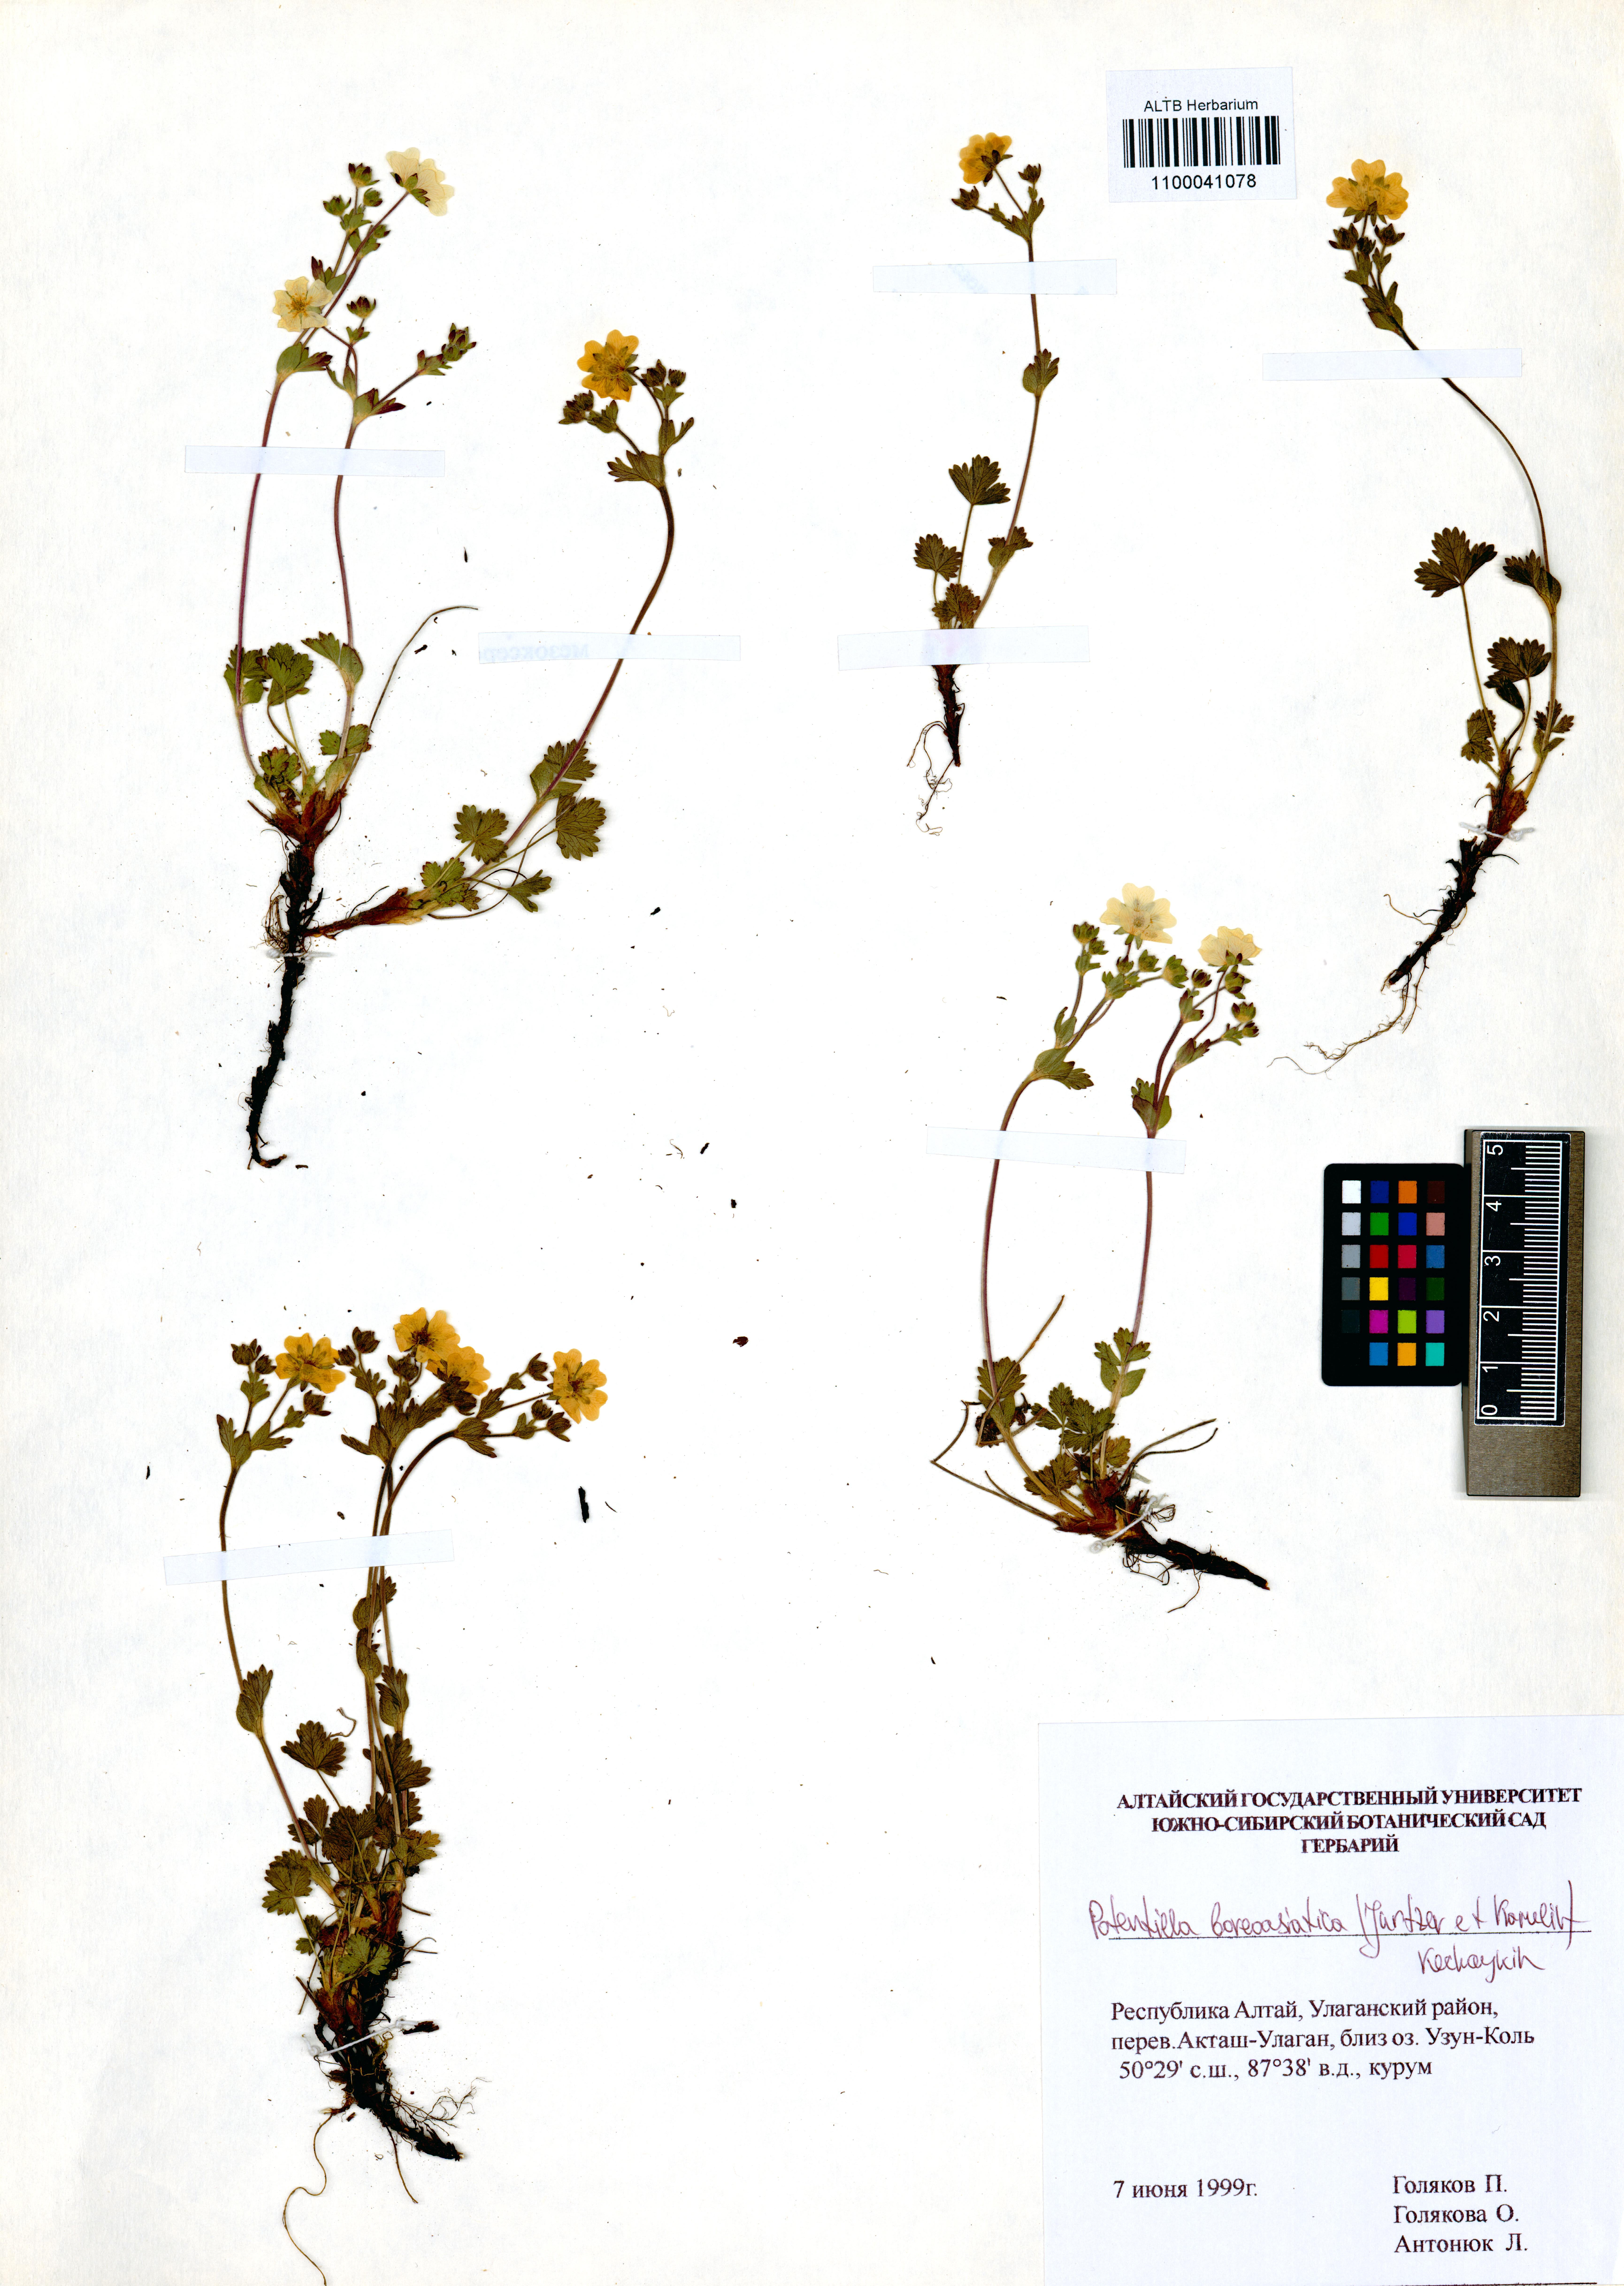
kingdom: Plantae
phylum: Tracheophyta
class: Magnoliopsida
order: Rosales
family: Rosaceae
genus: Potentilla
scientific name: Potentilla
